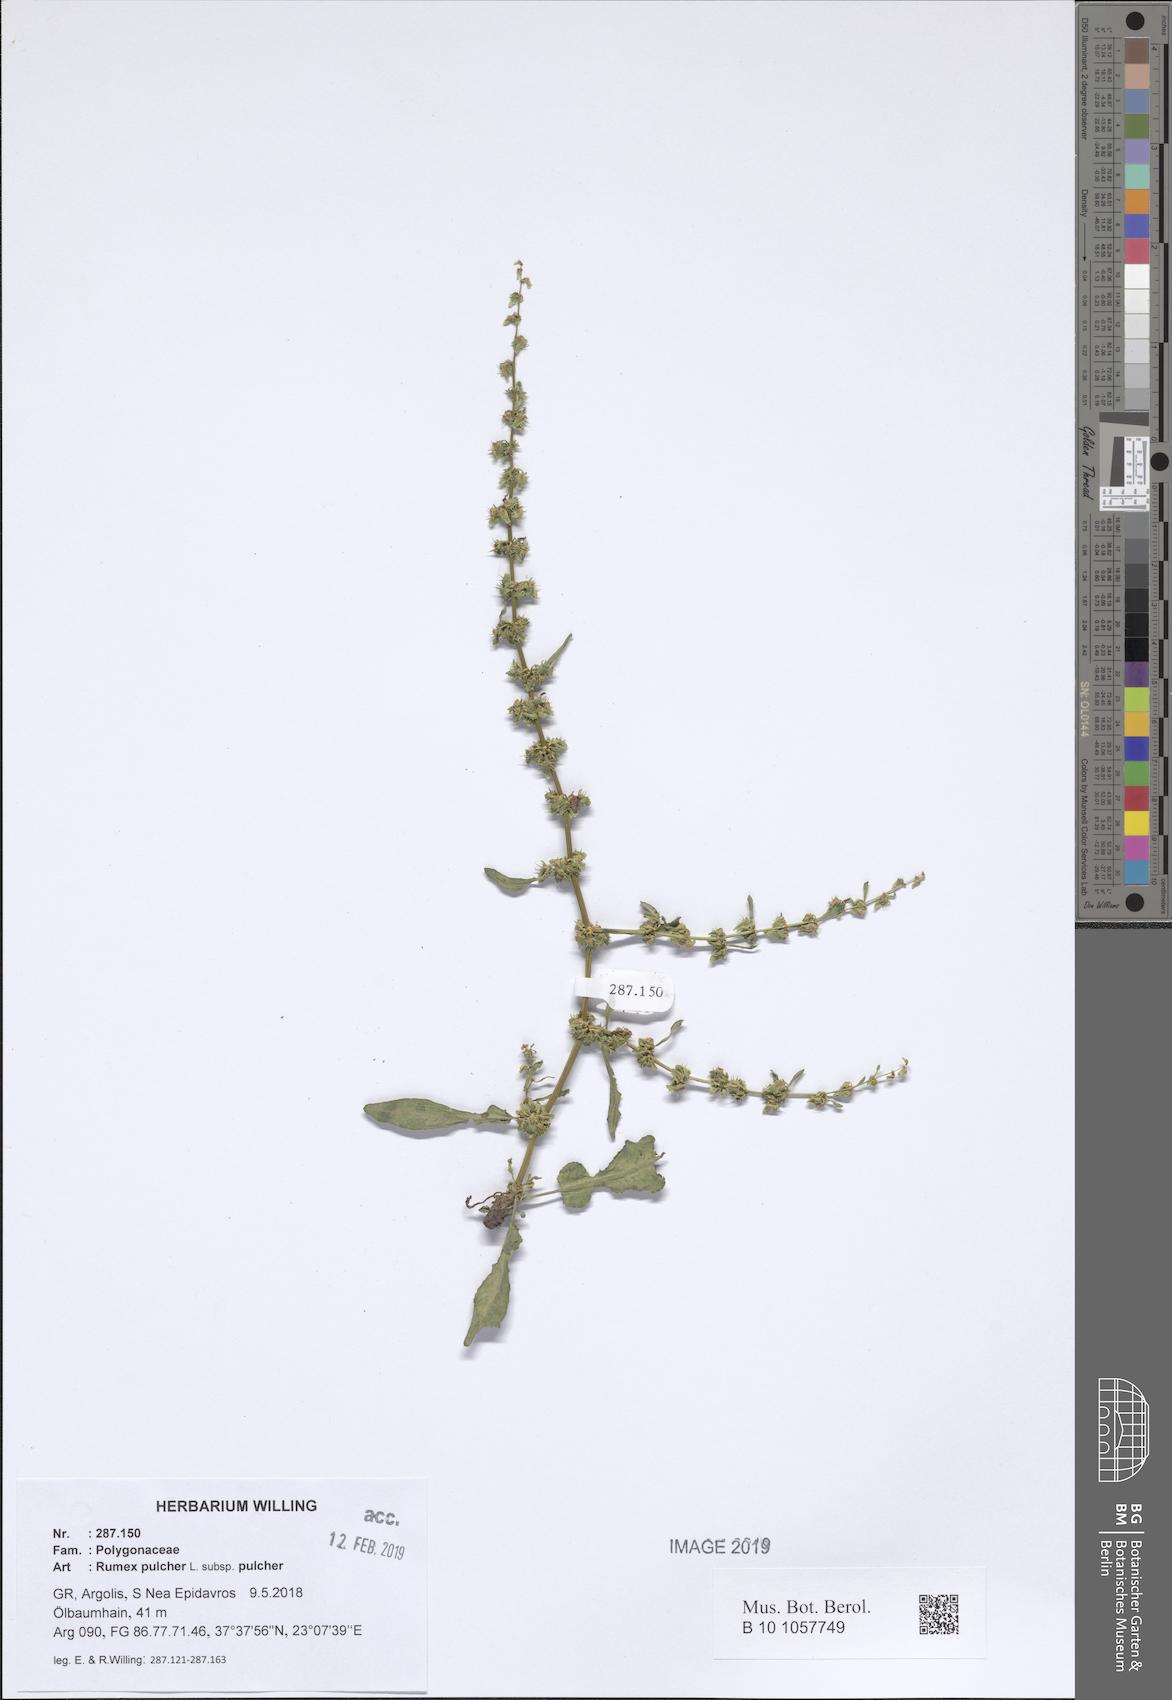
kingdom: Plantae
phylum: Tracheophyta
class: Magnoliopsida
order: Caryophyllales
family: Polygonaceae
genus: Rumex
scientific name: Rumex pulcher
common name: Fiddle dock
